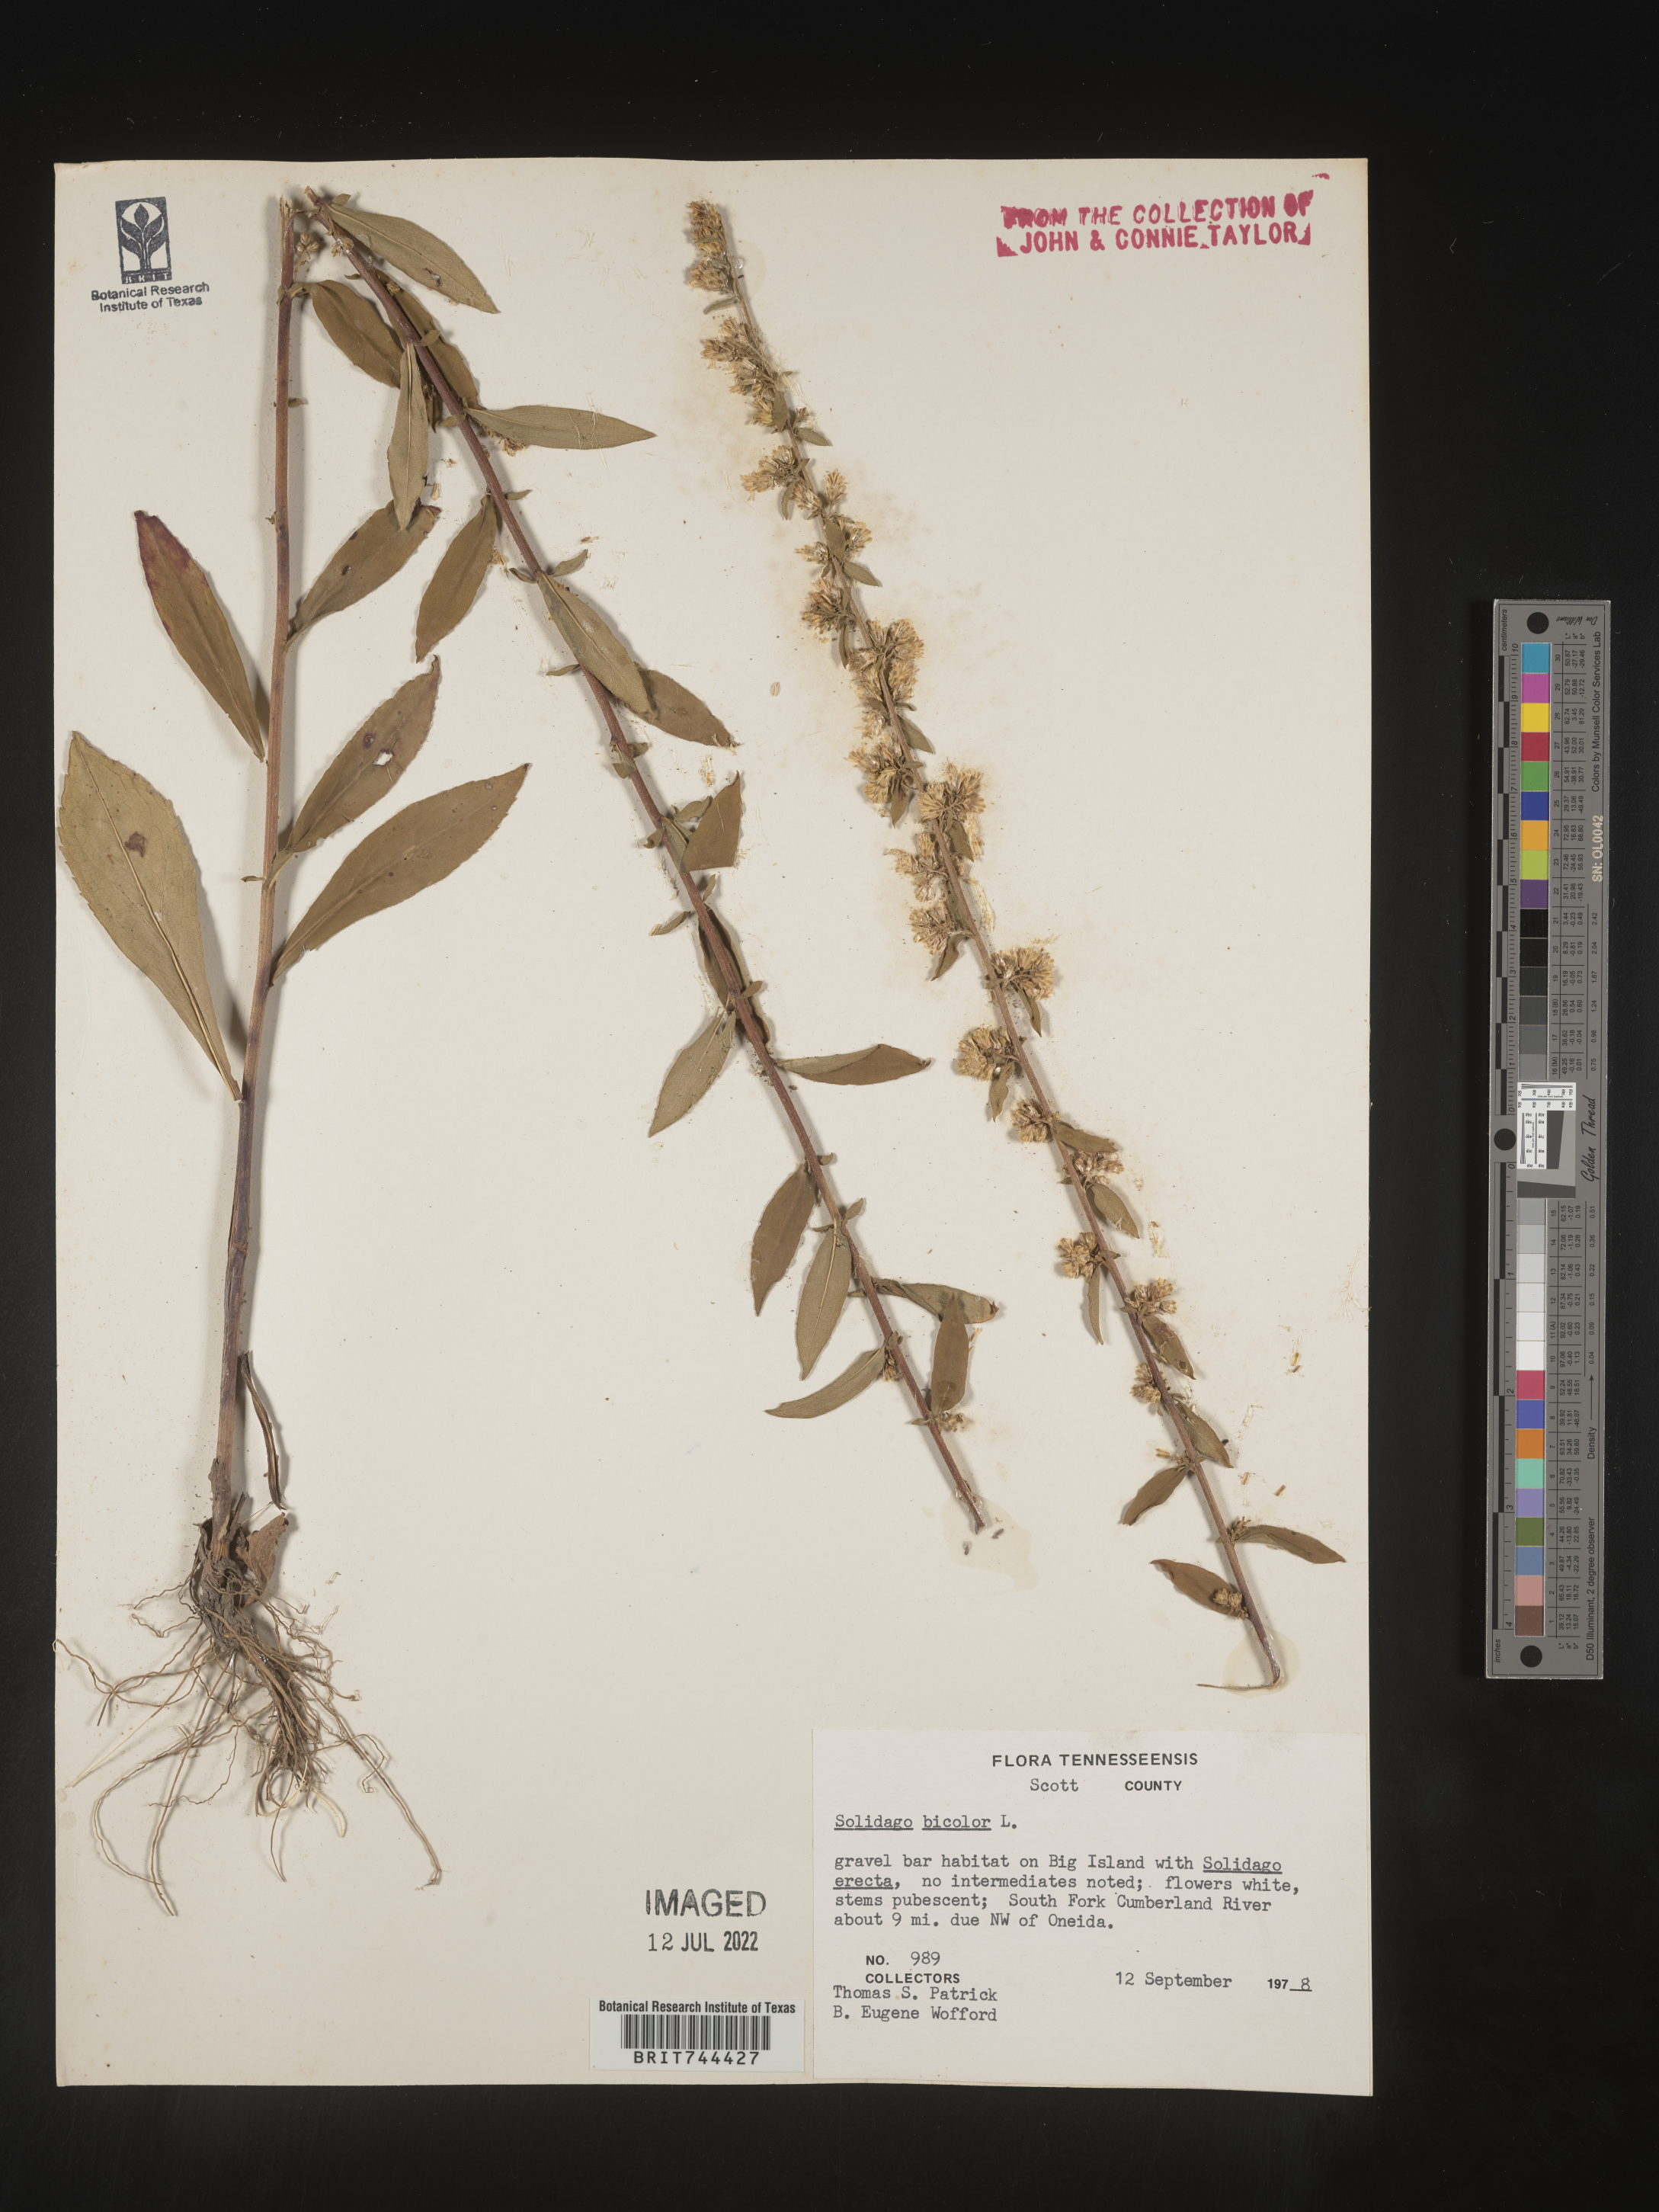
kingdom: Plantae
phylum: Tracheophyta
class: Magnoliopsida
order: Asterales
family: Asteraceae
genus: Solidago
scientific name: Solidago bicolor
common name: Silverrod
